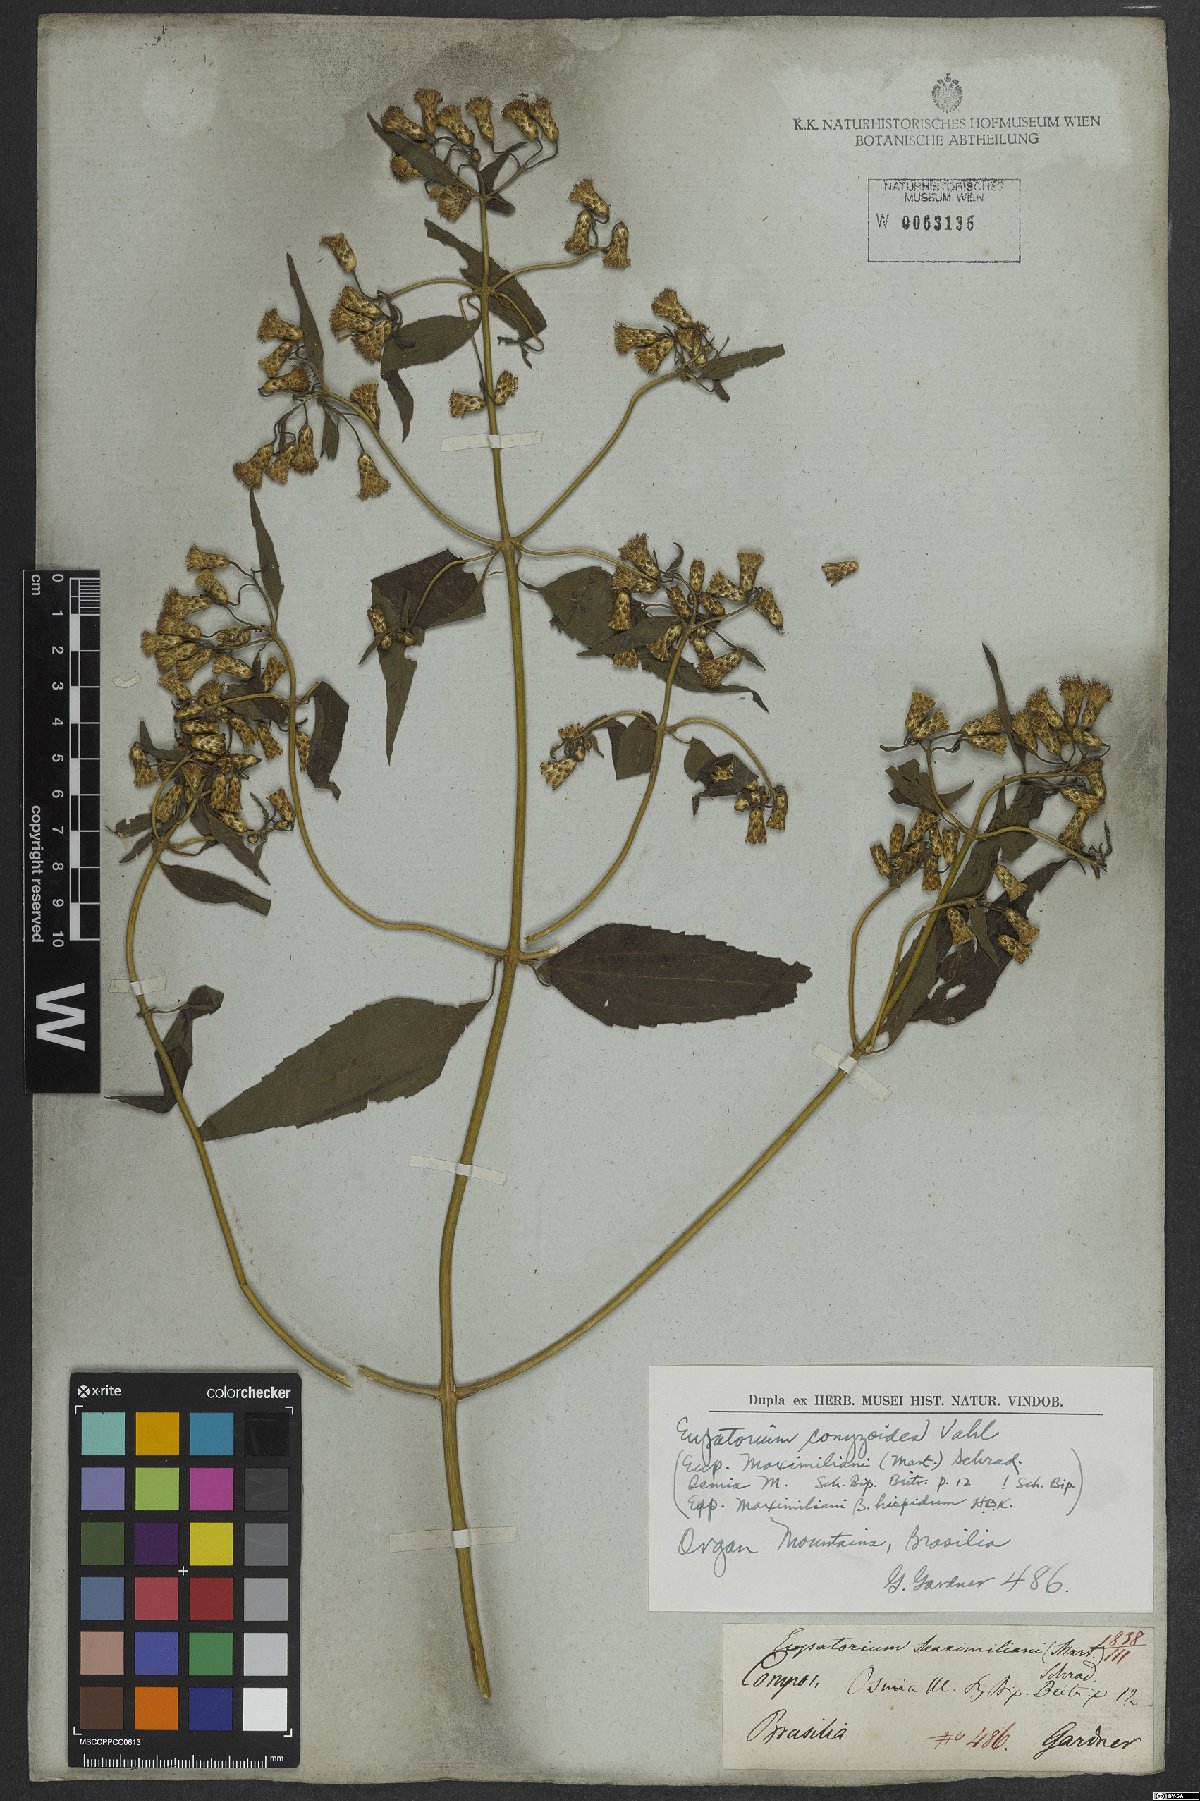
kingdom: Plantae
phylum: Tracheophyta
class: Magnoliopsida
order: Asterales
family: Asteraceae
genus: Chromolaena
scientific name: Chromolaena odorata
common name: Siamweed
